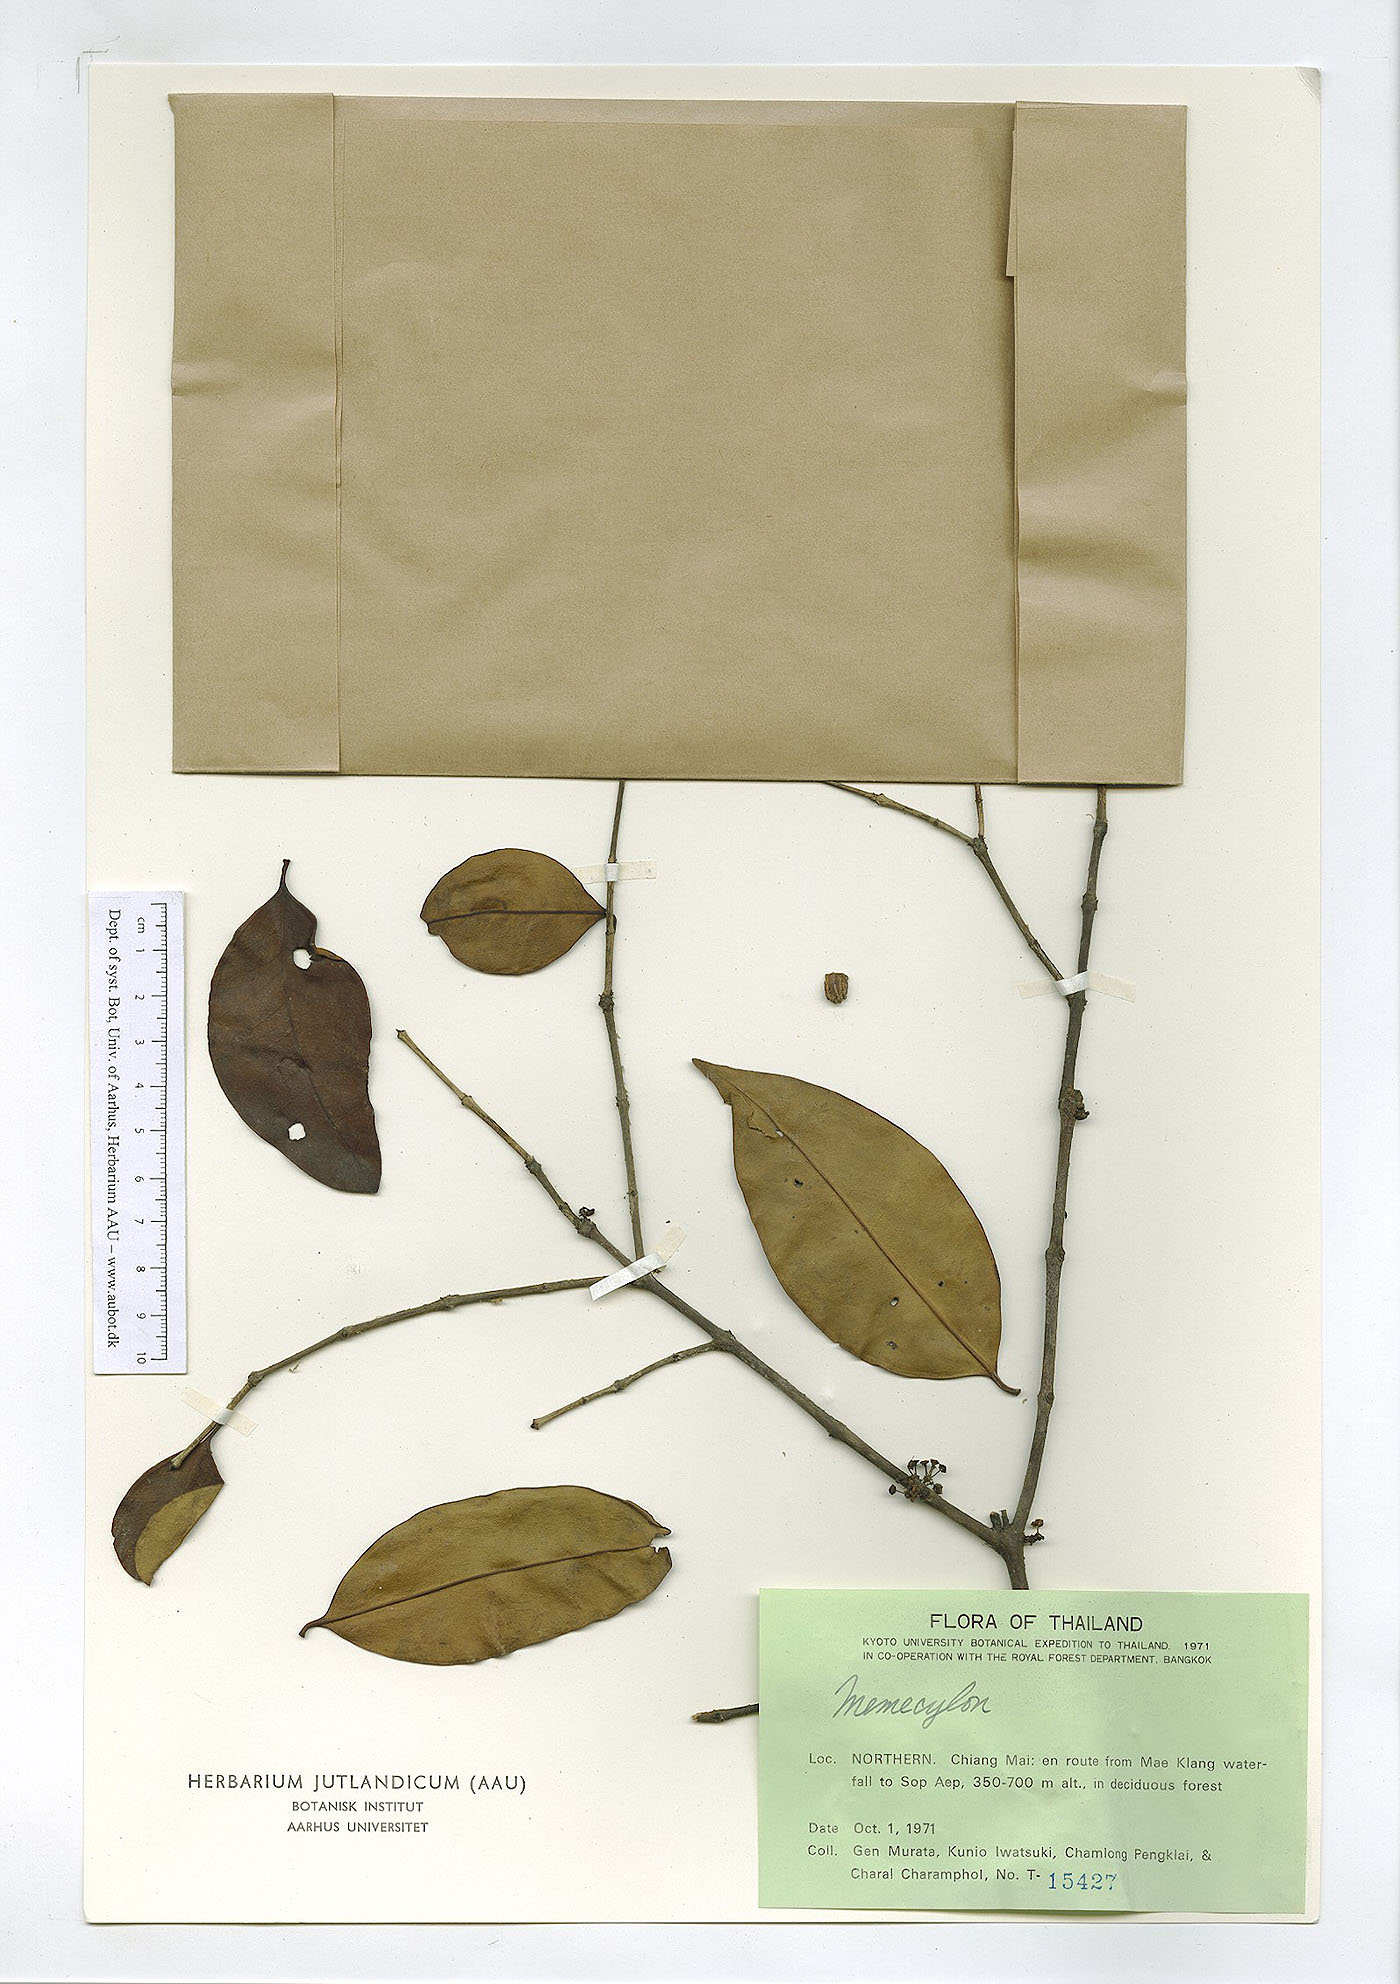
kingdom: Plantae
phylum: Tracheophyta
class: Magnoliopsida
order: Myrtales
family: Melastomataceae
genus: Memecylon
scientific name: Memecylon edule
